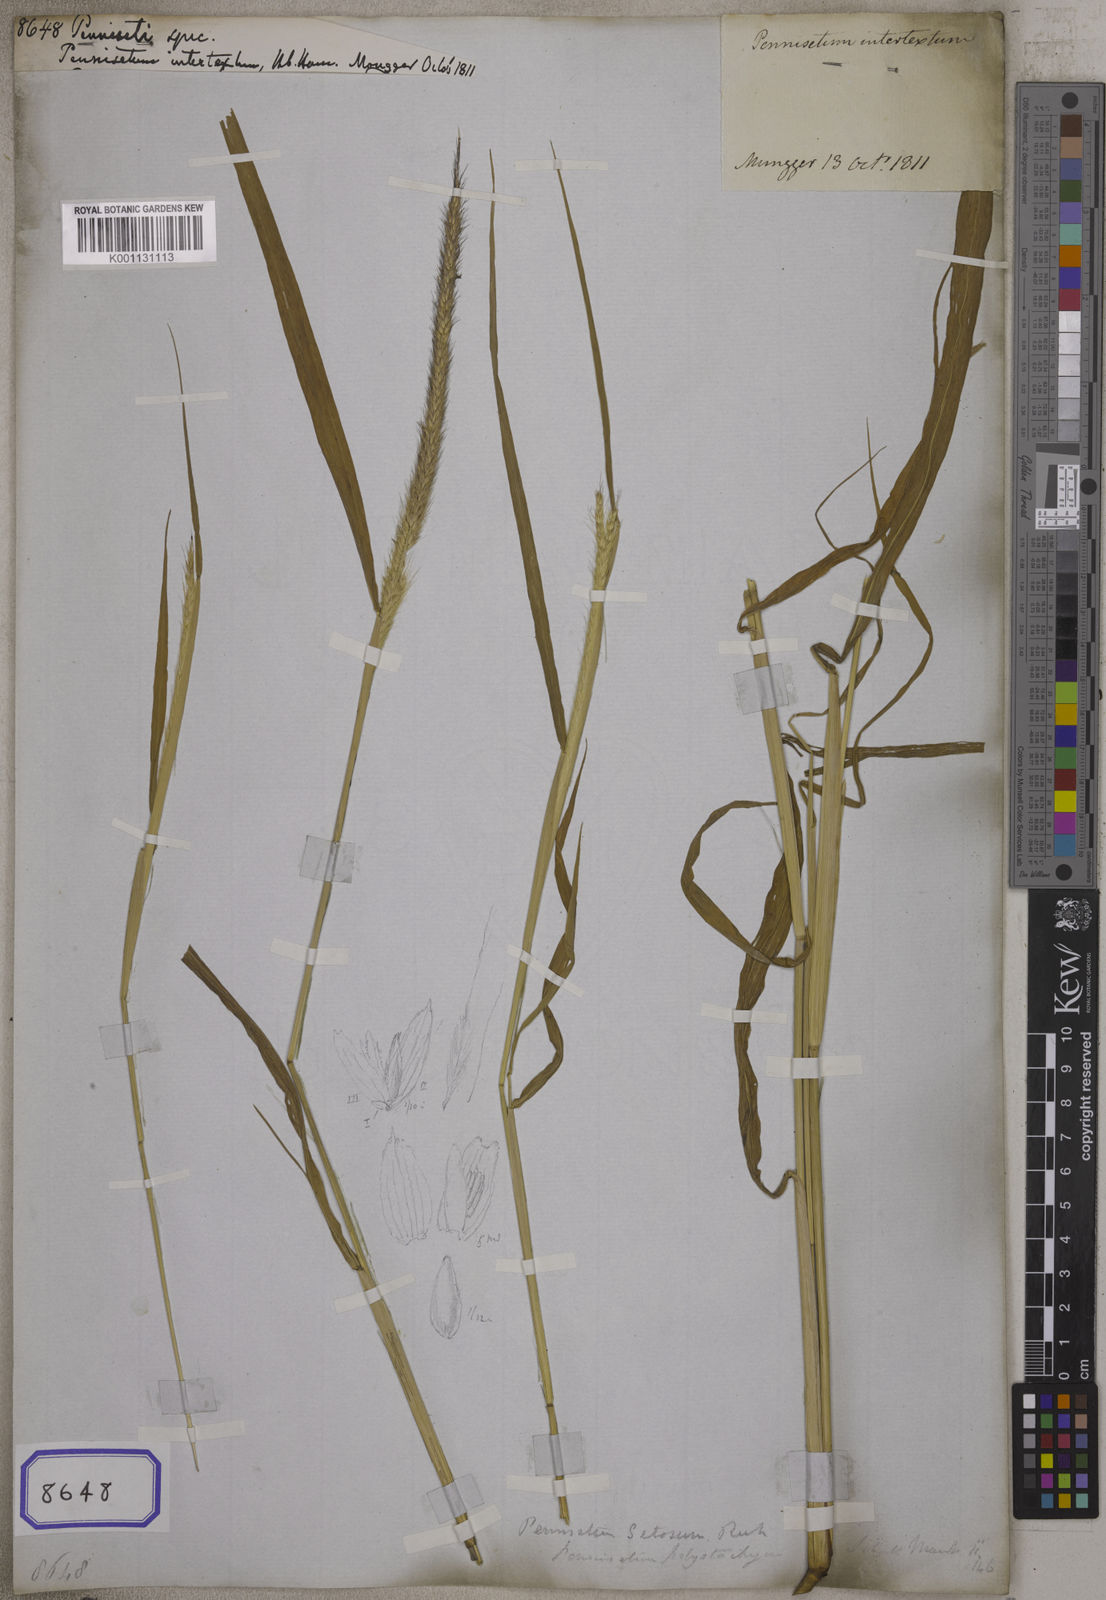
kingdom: Plantae
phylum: Tracheophyta
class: Liliopsida
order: Poales
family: Poaceae
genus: Cenchrus
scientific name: Cenchrus Pennisetum spec
